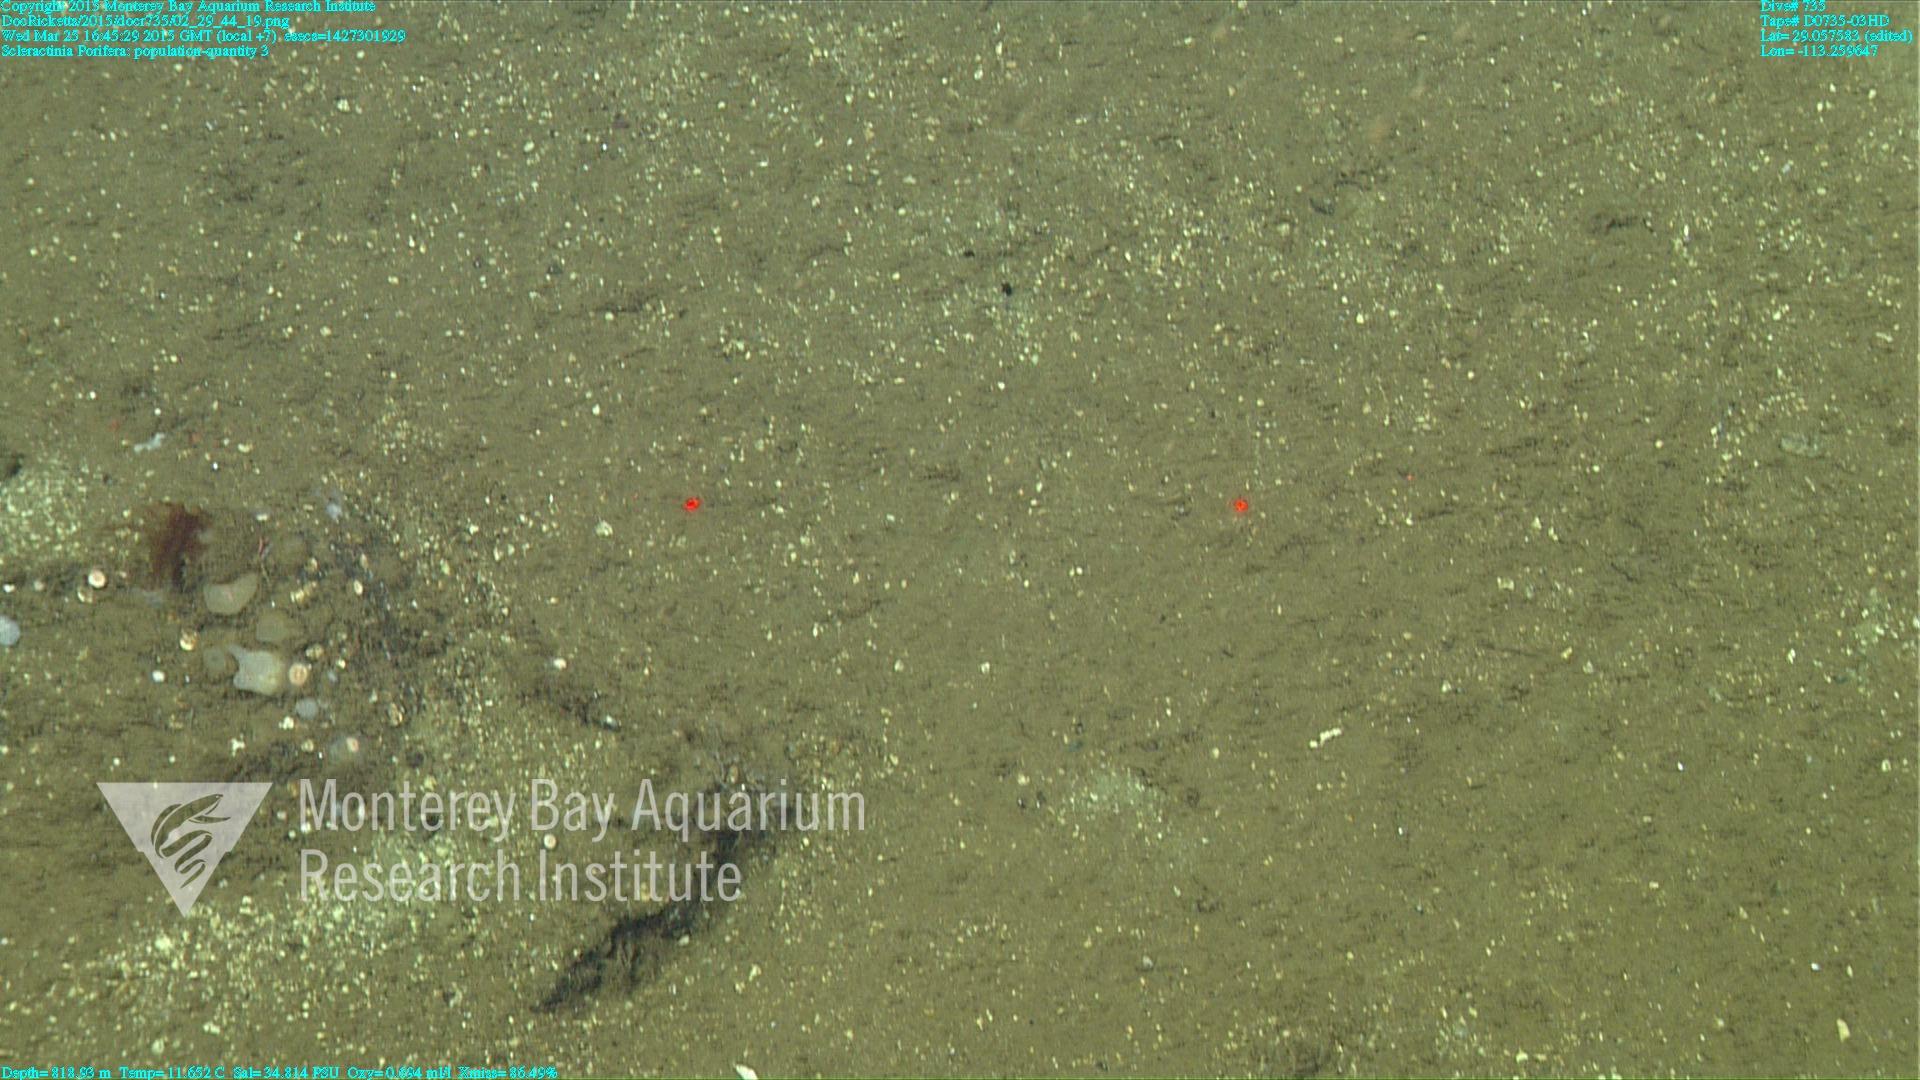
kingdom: Animalia
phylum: Cnidaria
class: Anthozoa
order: Scleractinia
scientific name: Scleractinia
